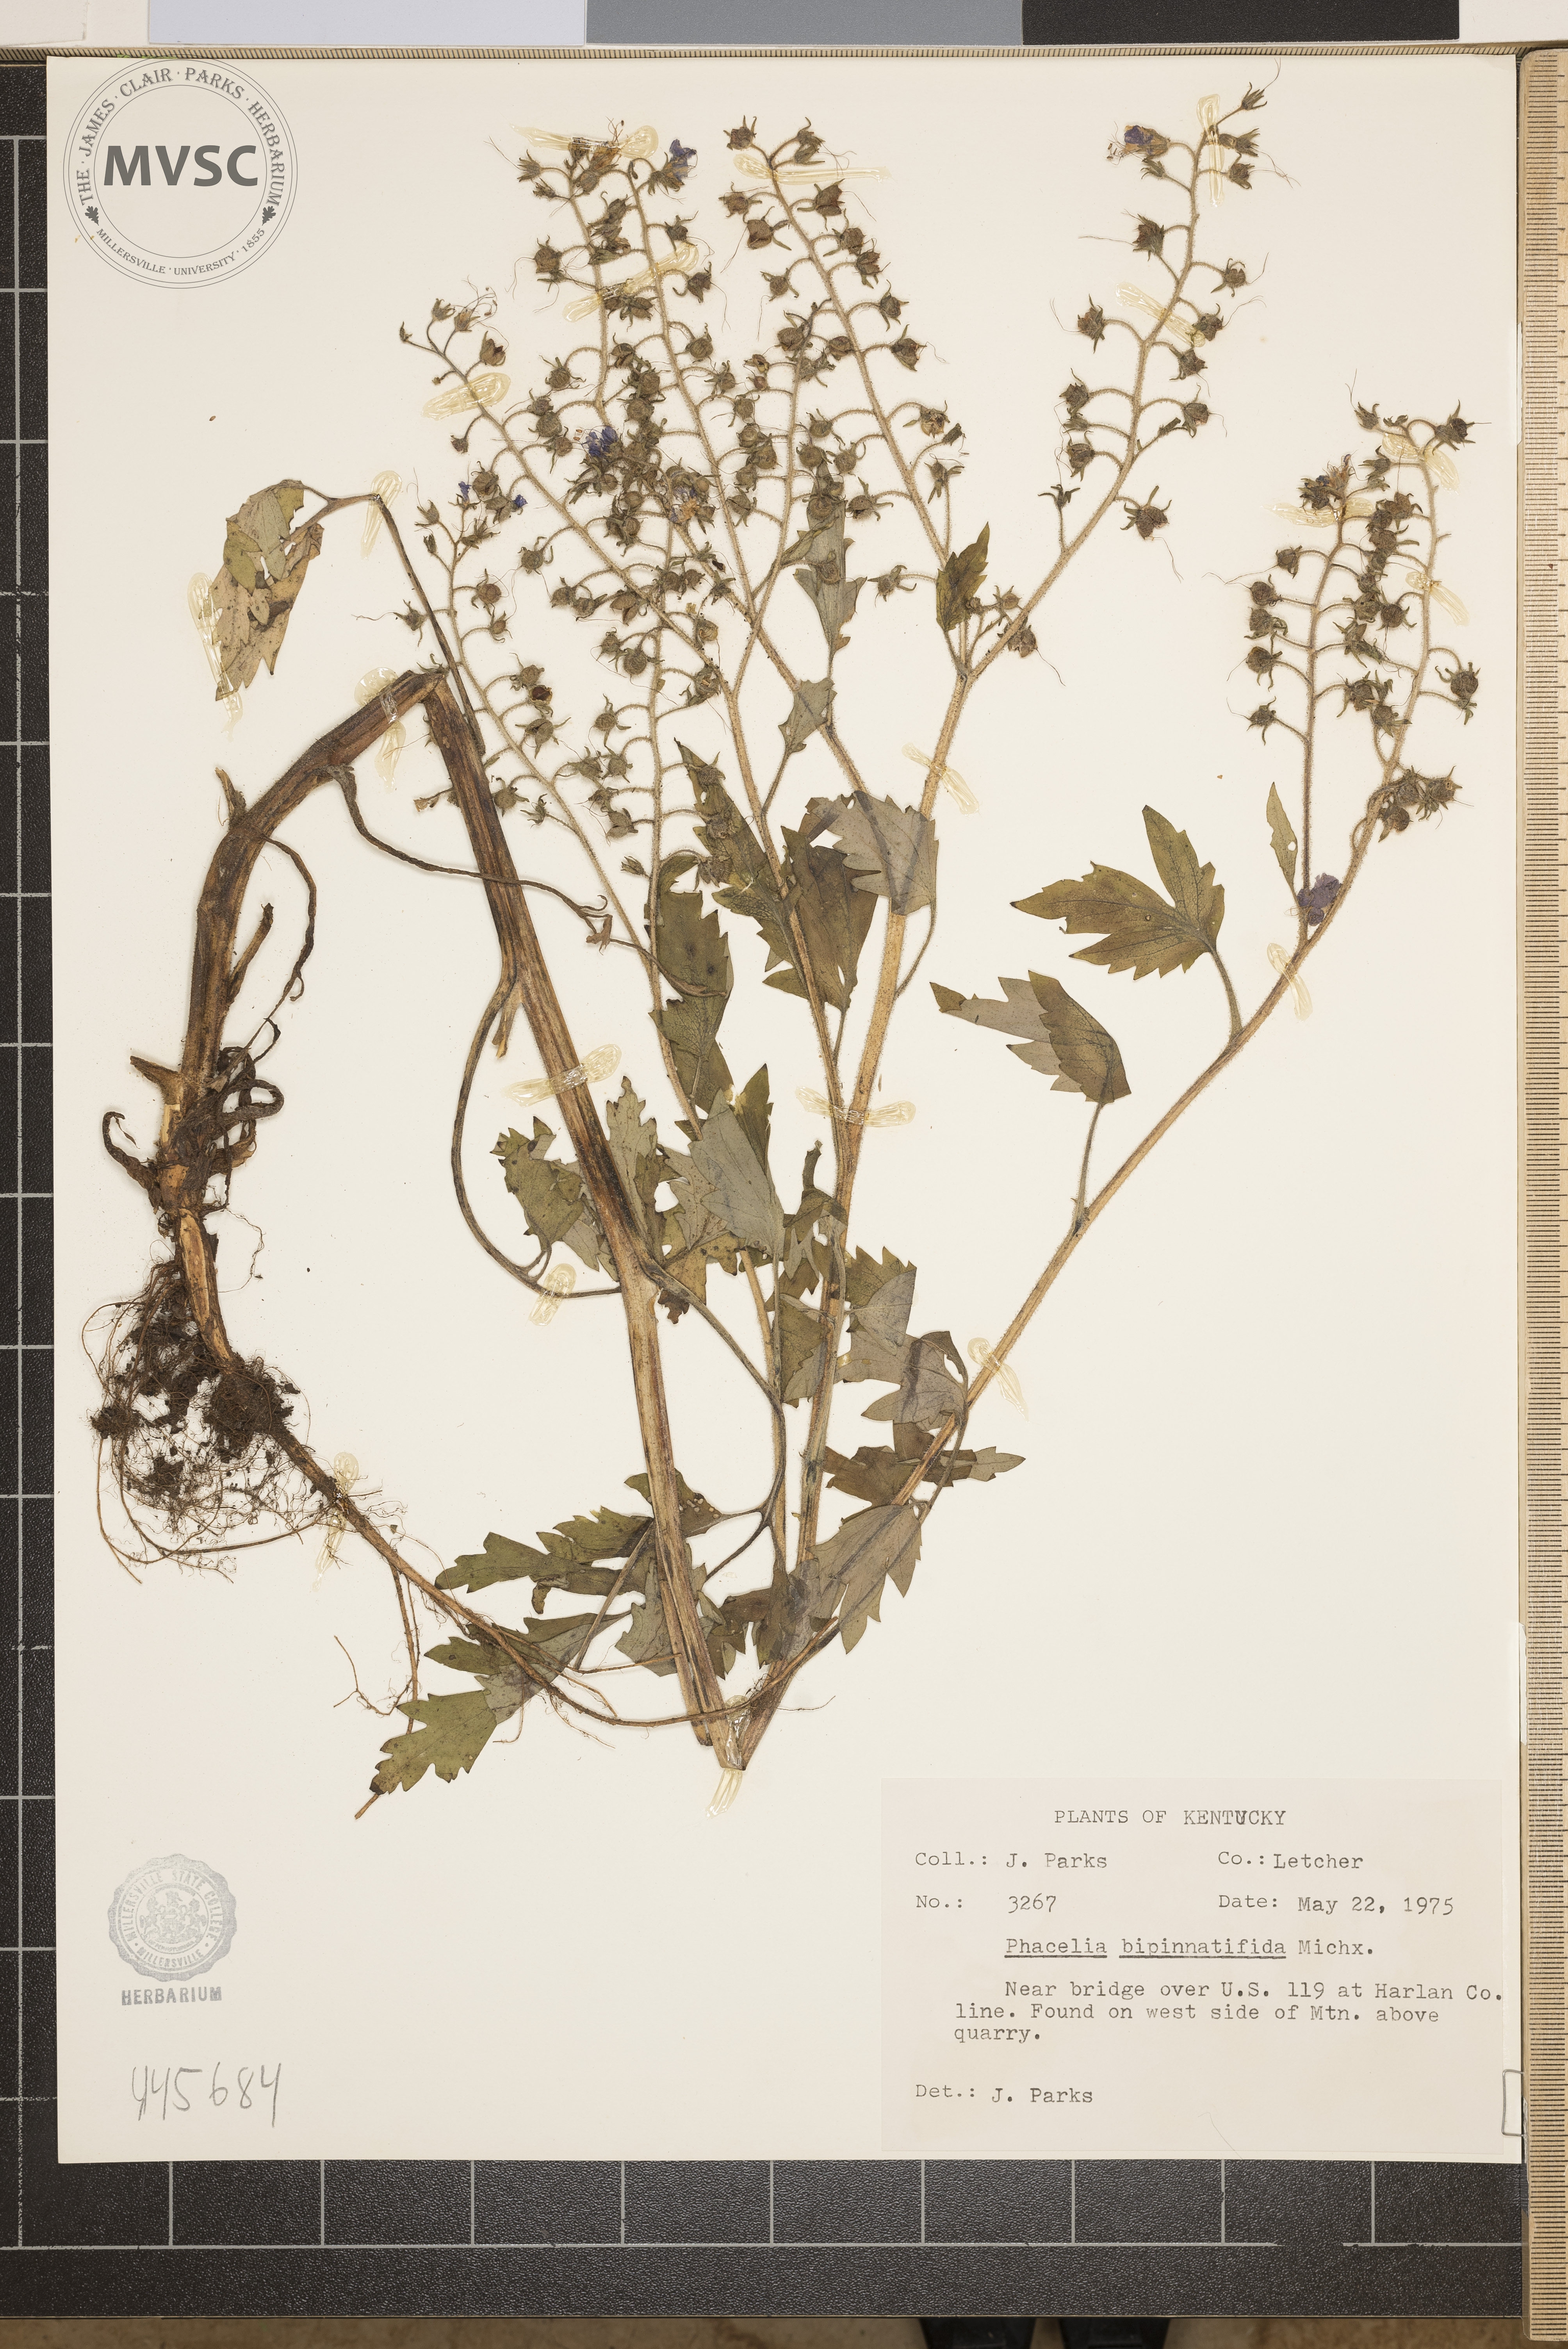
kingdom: Plantae
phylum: Tracheophyta
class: Magnoliopsida
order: Boraginales
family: Hydrophyllaceae
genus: Phacelia
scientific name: Phacelia bipinnatifida
